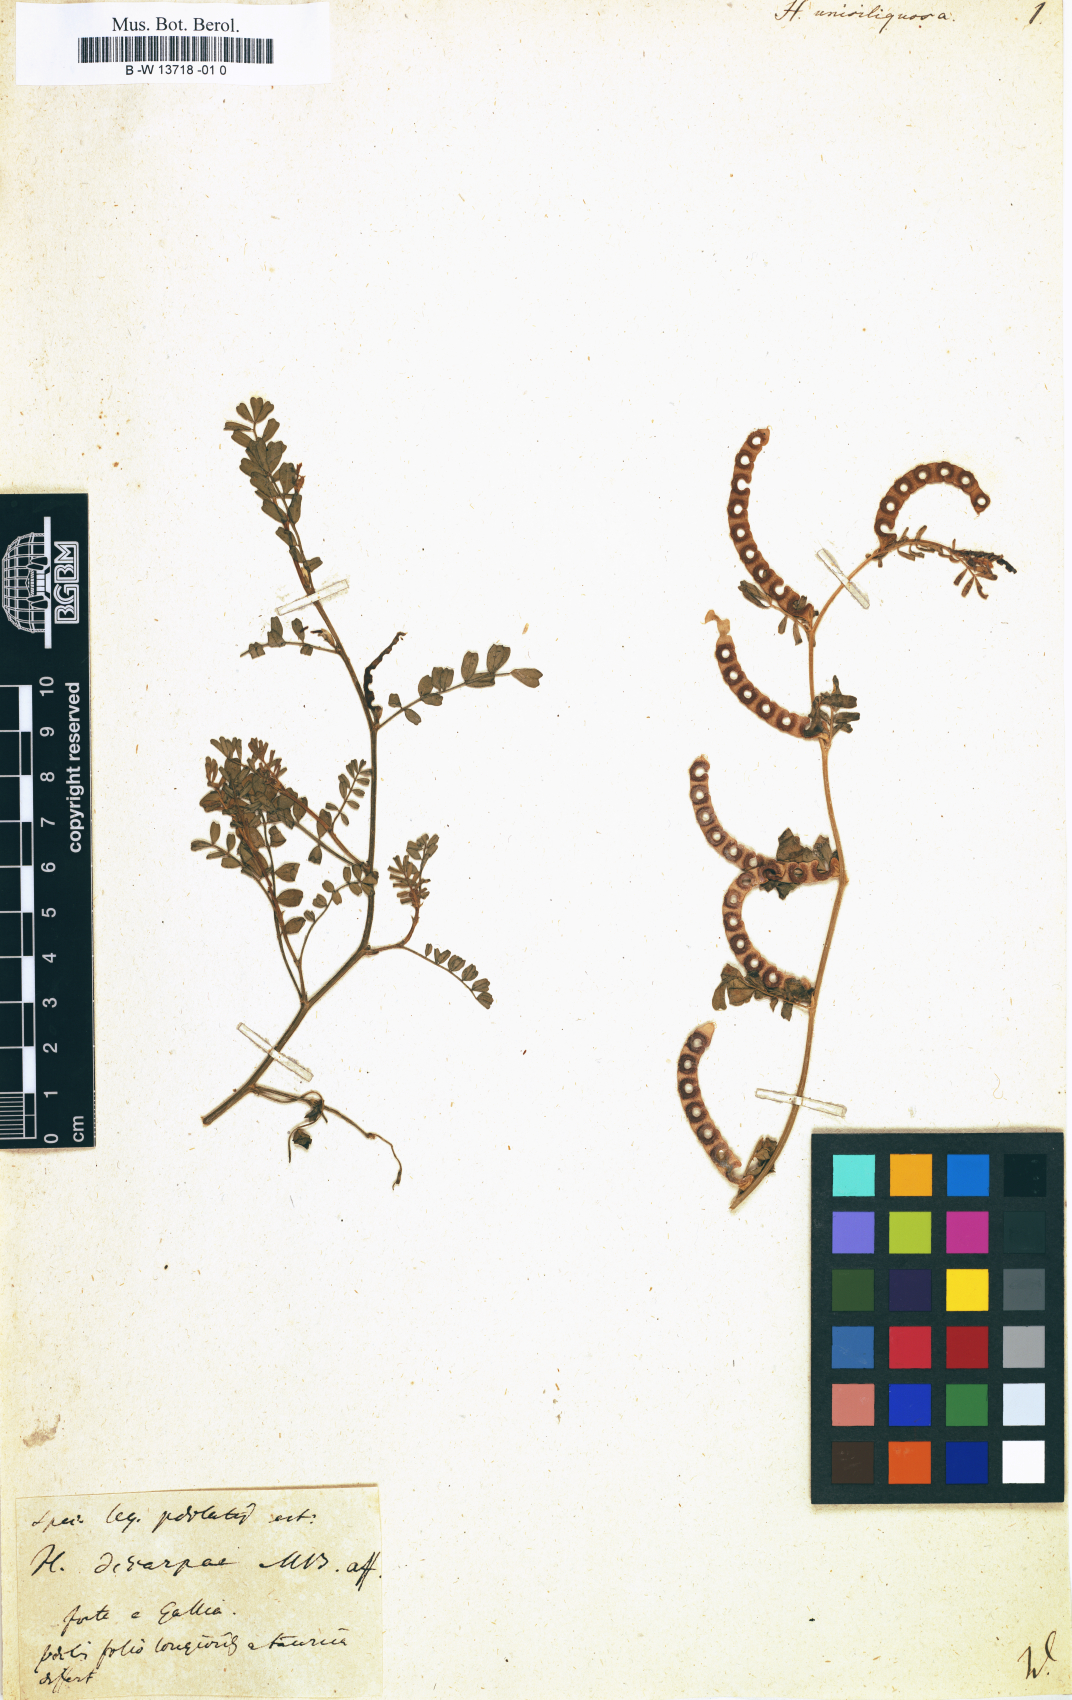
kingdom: Plantae
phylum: Tracheophyta
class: Magnoliopsida
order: Fabales
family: Fabaceae
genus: Hippocrepis
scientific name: Hippocrepis unisiliquosa
